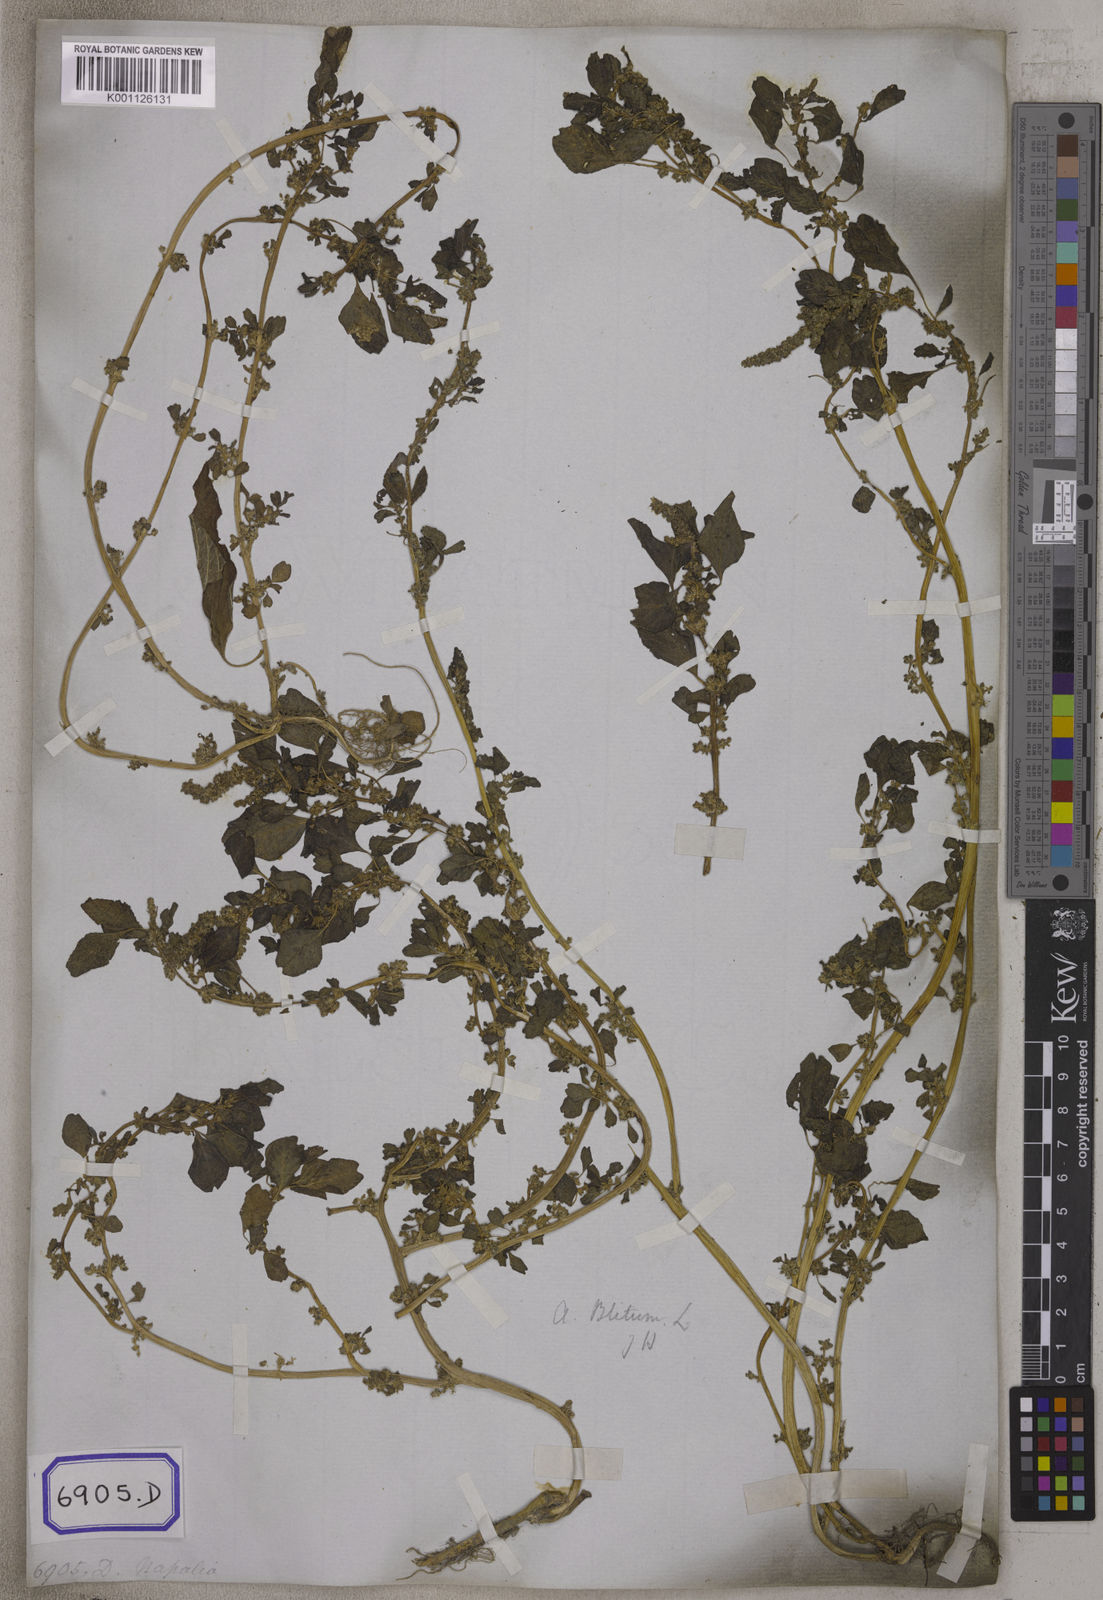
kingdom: Plantae
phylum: Tracheophyta
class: Magnoliopsida
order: Caryophyllales
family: Amaranthaceae
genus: Amaranthus
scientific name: Amaranthus
